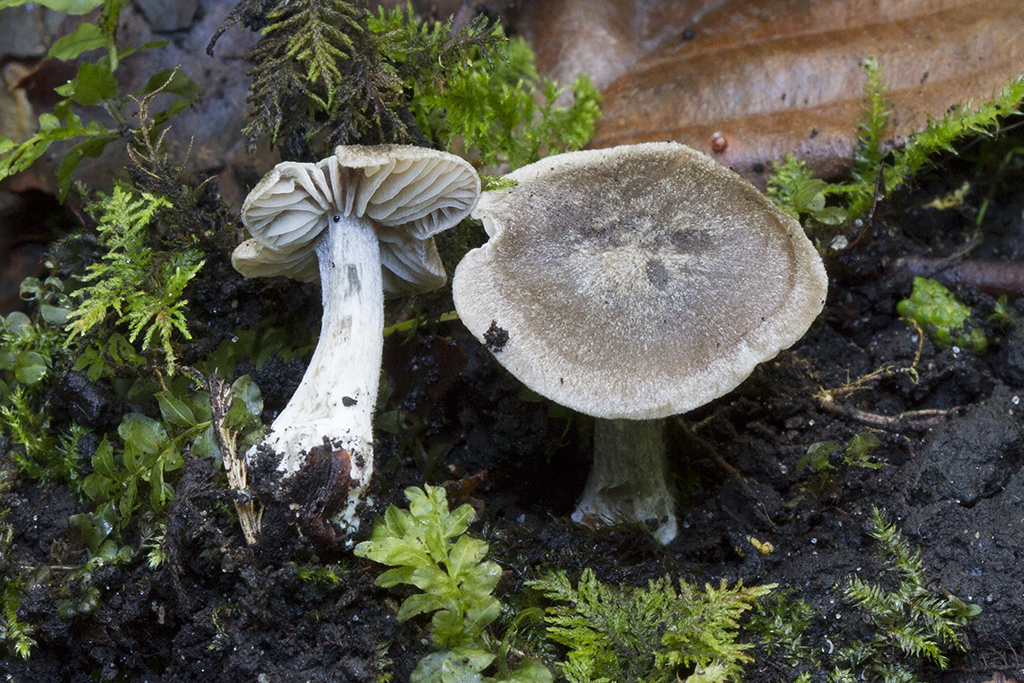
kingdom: Fungi
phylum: Basidiomycota
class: Agaricomycetes
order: Agaricales
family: Entolomataceae
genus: Entoloma
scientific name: Entoloma ameides
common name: sødlig rødblad
